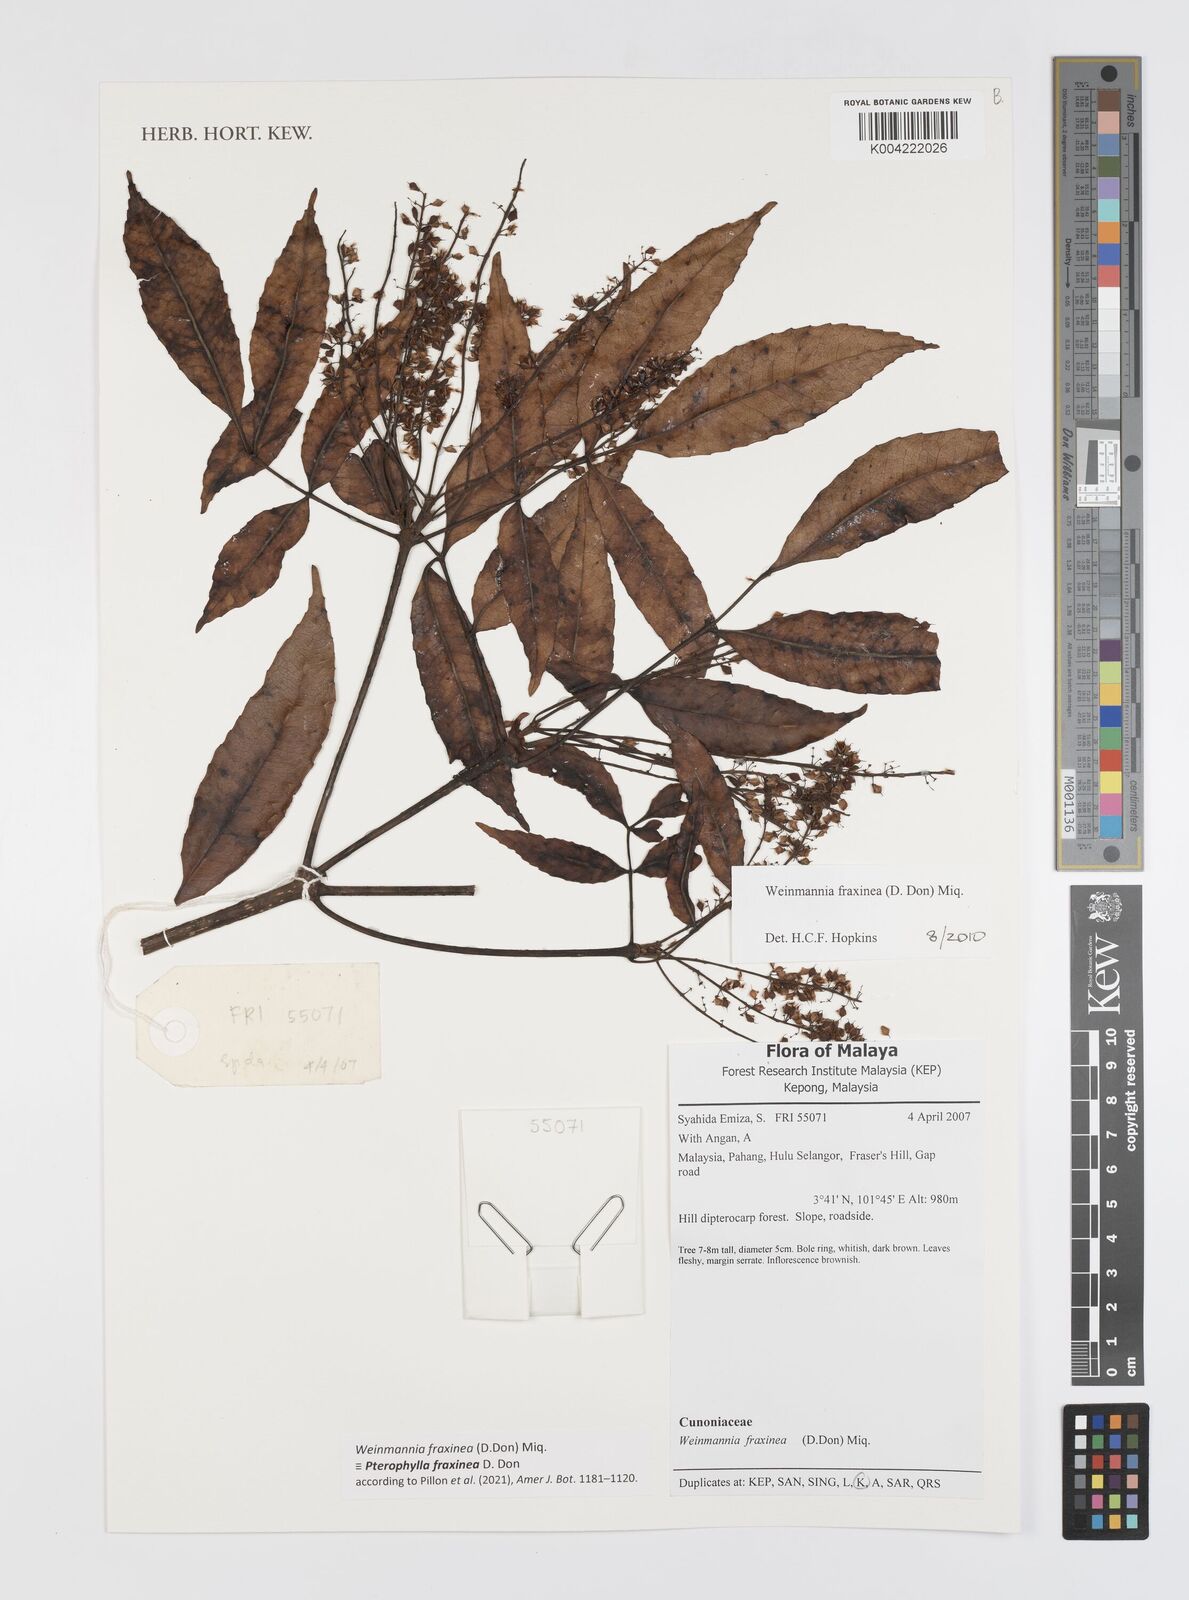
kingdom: Plantae
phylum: Tracheophyta
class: Magnoliopsida
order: Oxalidales
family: Cunoniaceae
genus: Pterophylla
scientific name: Pterophylla fraxinea
